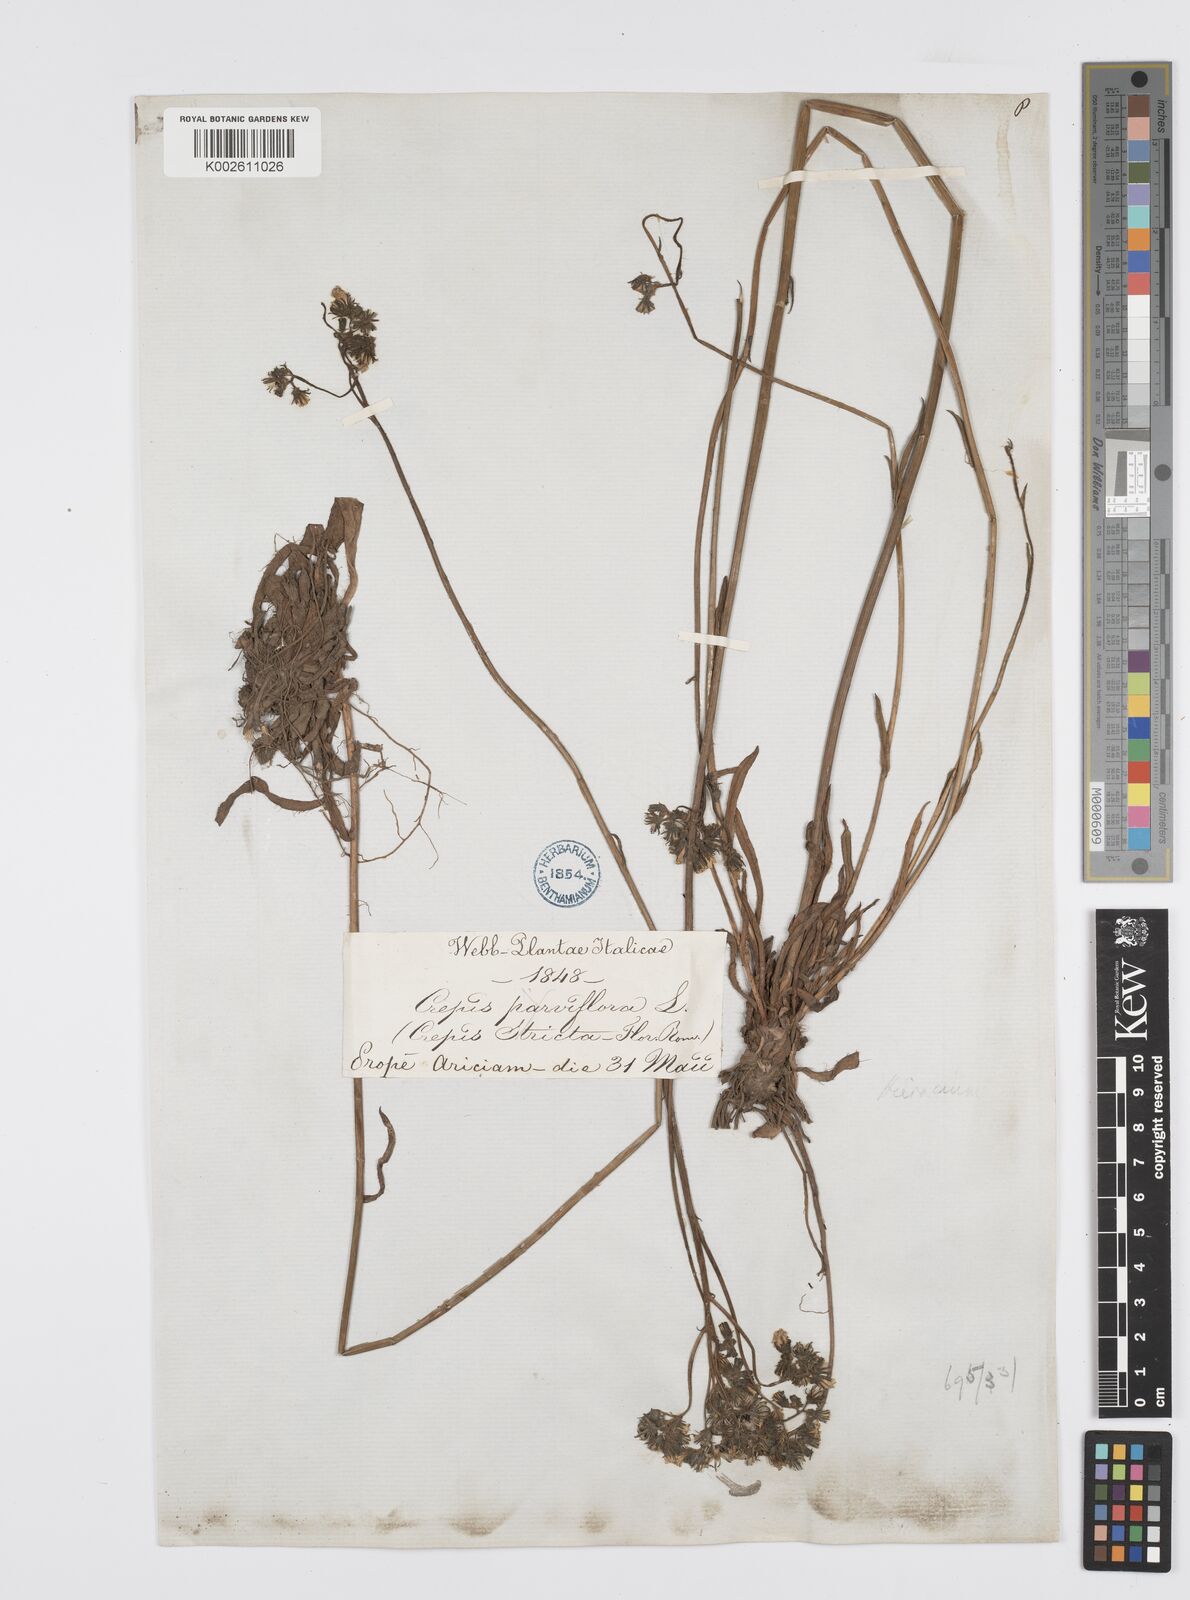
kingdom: Plantae
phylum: Tracheophyta
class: Magnoliopsida
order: Asterales
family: Asteraceae
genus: Pilosella
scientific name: Pilosella piloselloides
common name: Glaucous king-devil
